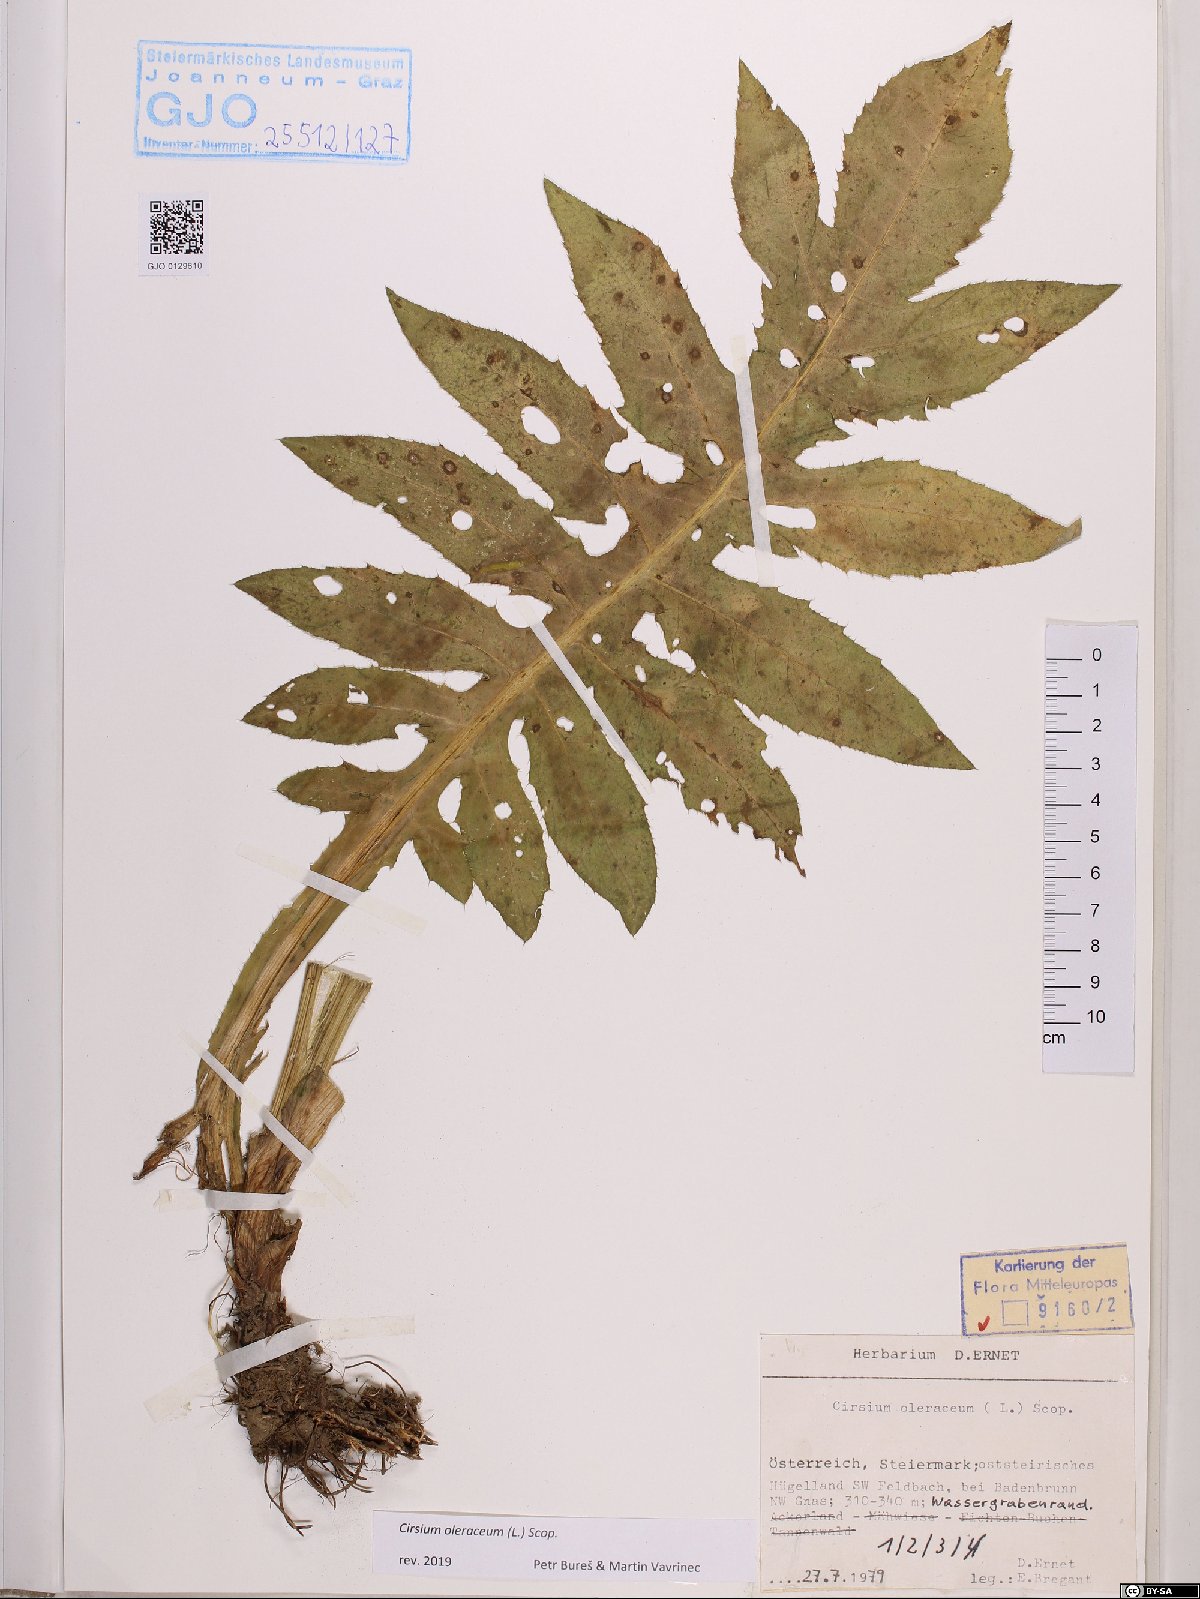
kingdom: Plantae
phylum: Tracheophyta
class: Magnoliopsida
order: Asterales
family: Asteraceae
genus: Cirsium
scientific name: Cirsium oleraceum
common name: Cabbage thistle
